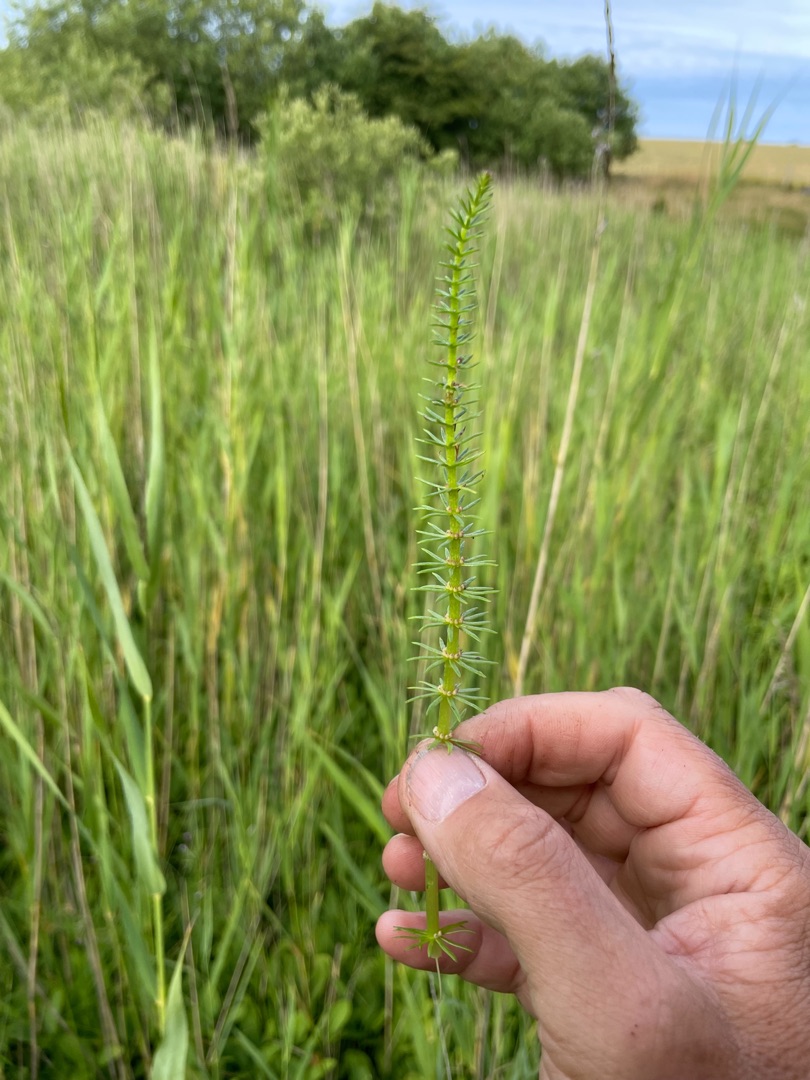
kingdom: Plantae
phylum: Tracheophyta
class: Magnoliopsida
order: Lamiales
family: Plantaginaceae
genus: Hippuris
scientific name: Hippuris vulgaris
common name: Vandspir
